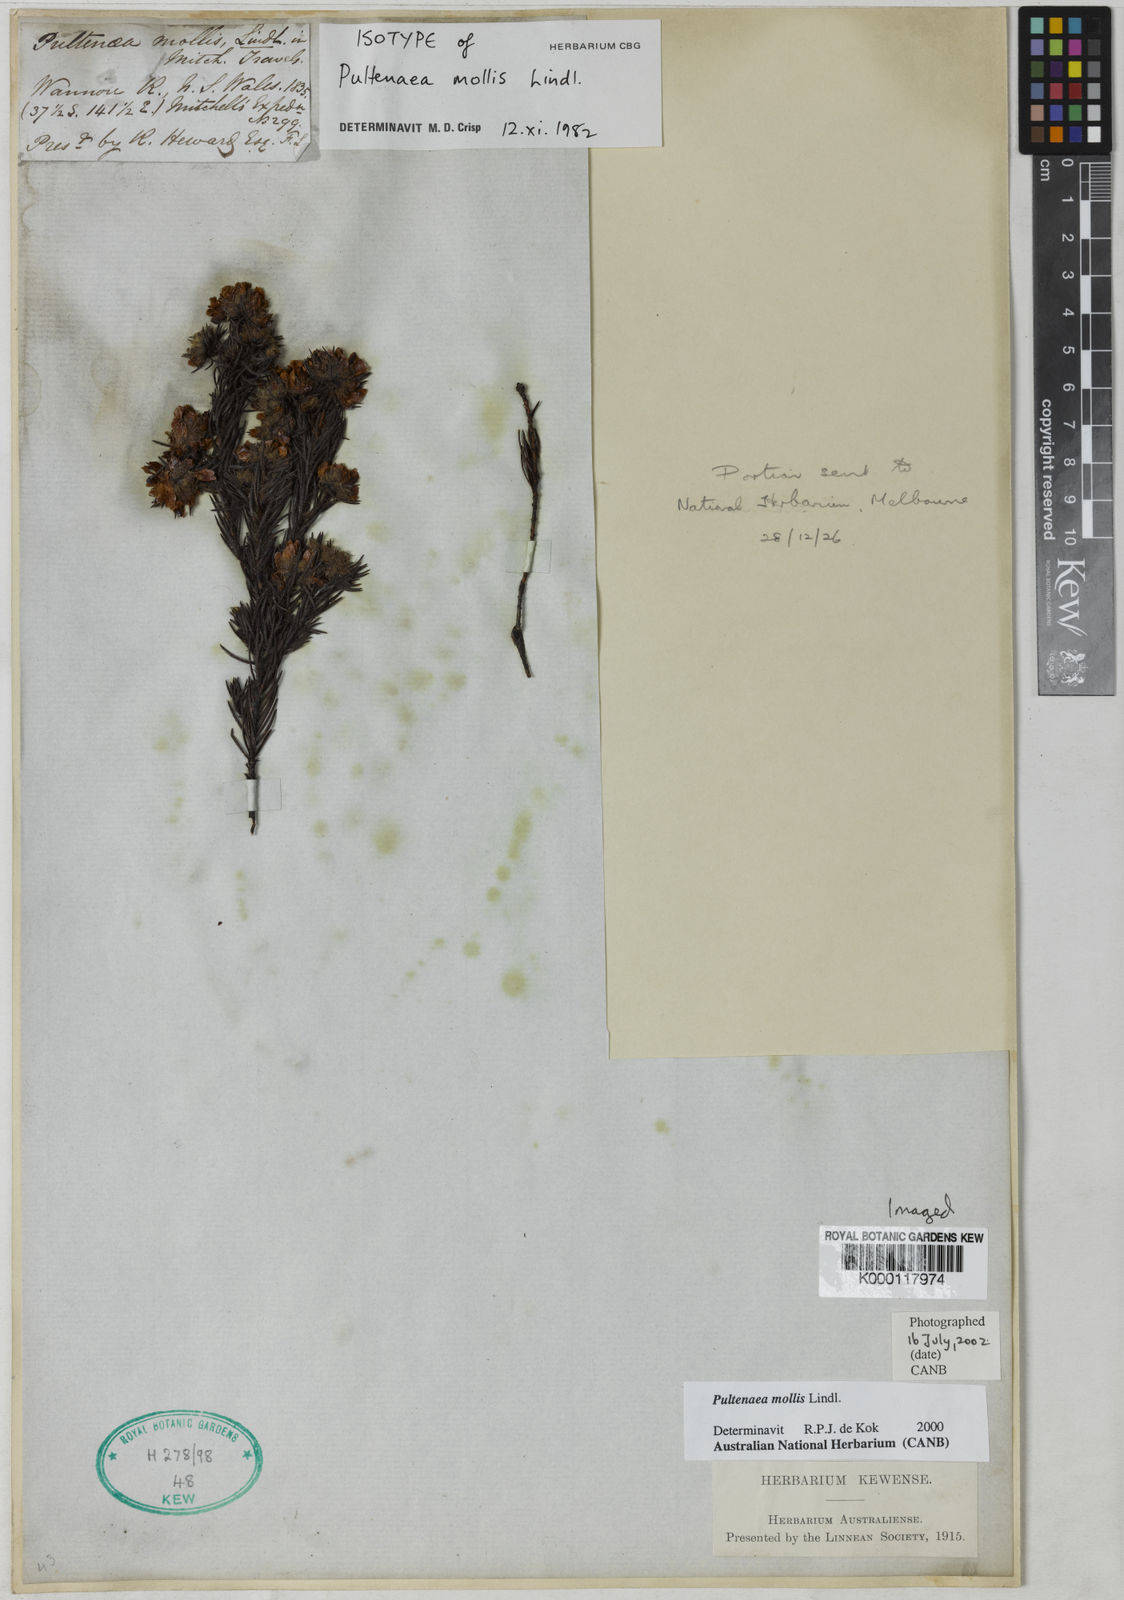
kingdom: Plantae
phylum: Tracheophyta
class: Magnoliopsida
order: Fabales
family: Fabaceae
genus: Pultenaea
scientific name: Pultenaea mollis
